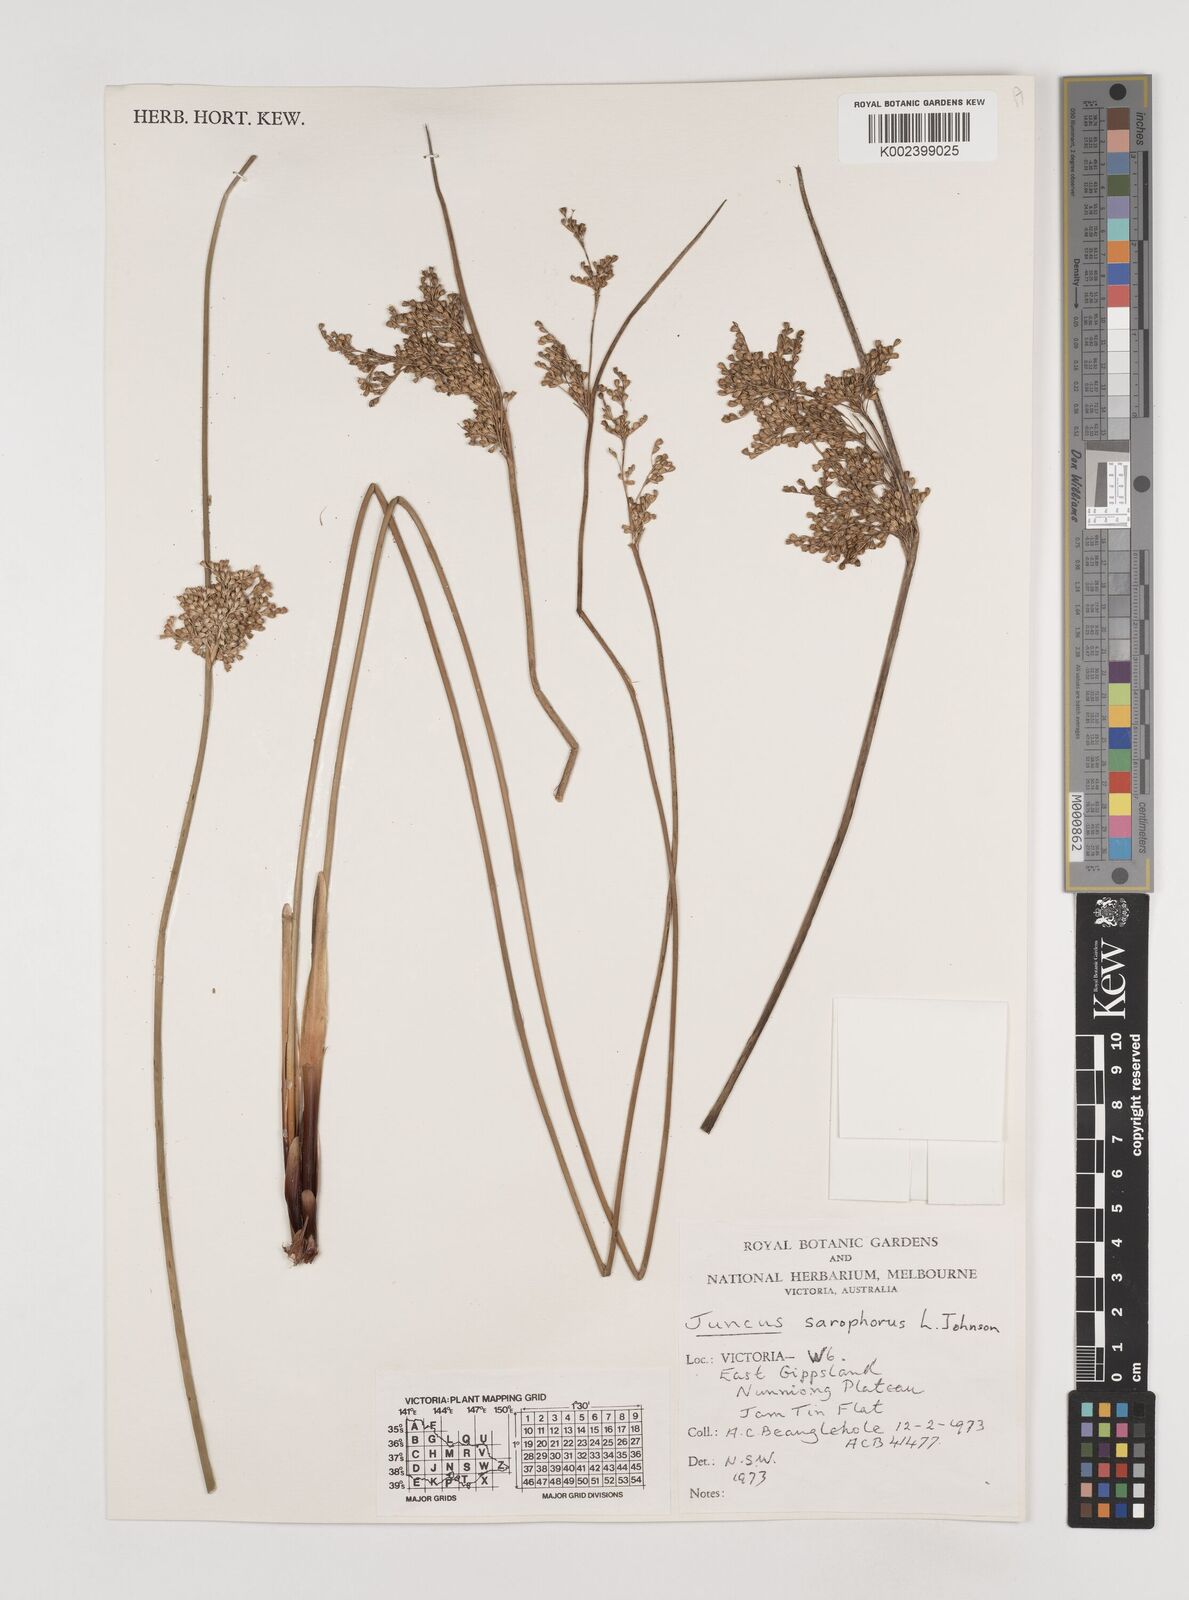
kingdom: Plantae
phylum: Tracheophyta
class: Liliopsida
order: Poales
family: Juncaceae
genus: Juncus
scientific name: Juncus sarophorus
